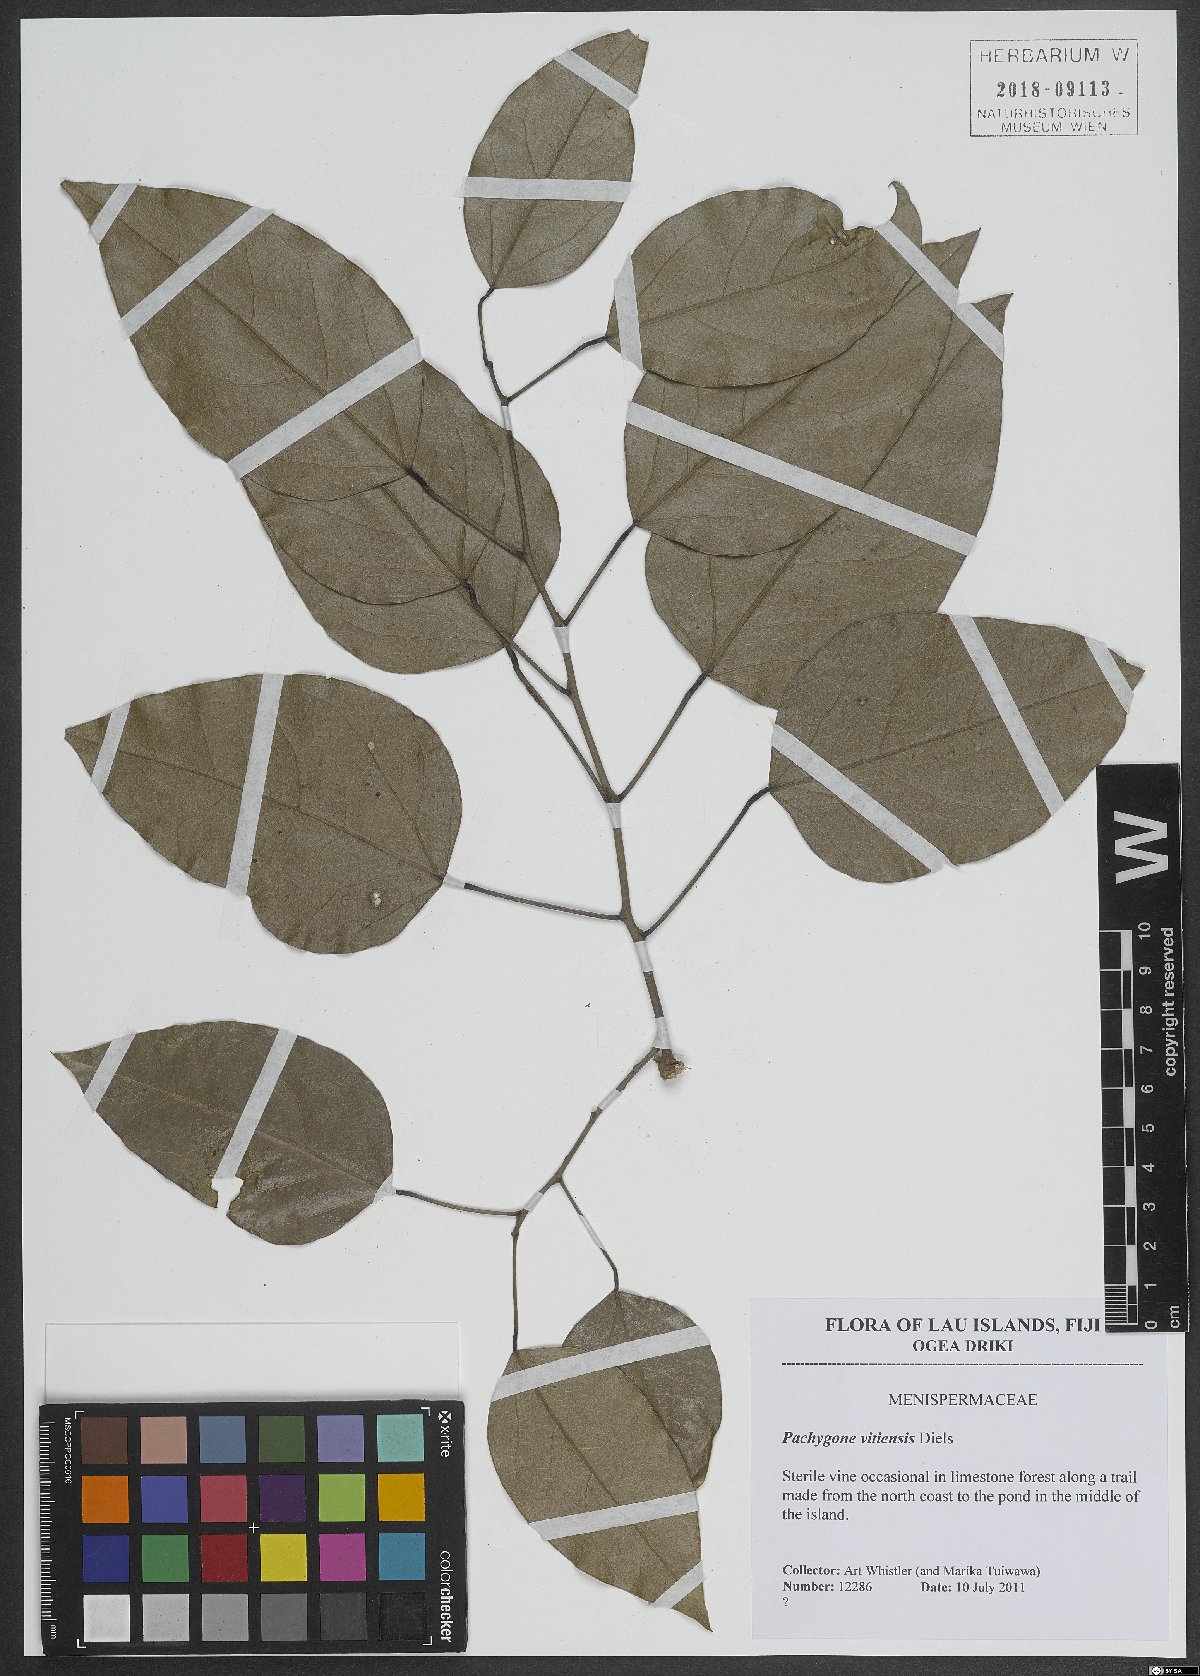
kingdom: Plantae
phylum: Tracheophyta
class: Magnoliopsida
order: Ranunculales
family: Menispermaceae
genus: Pachygone
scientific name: Pachygone vitiensis
